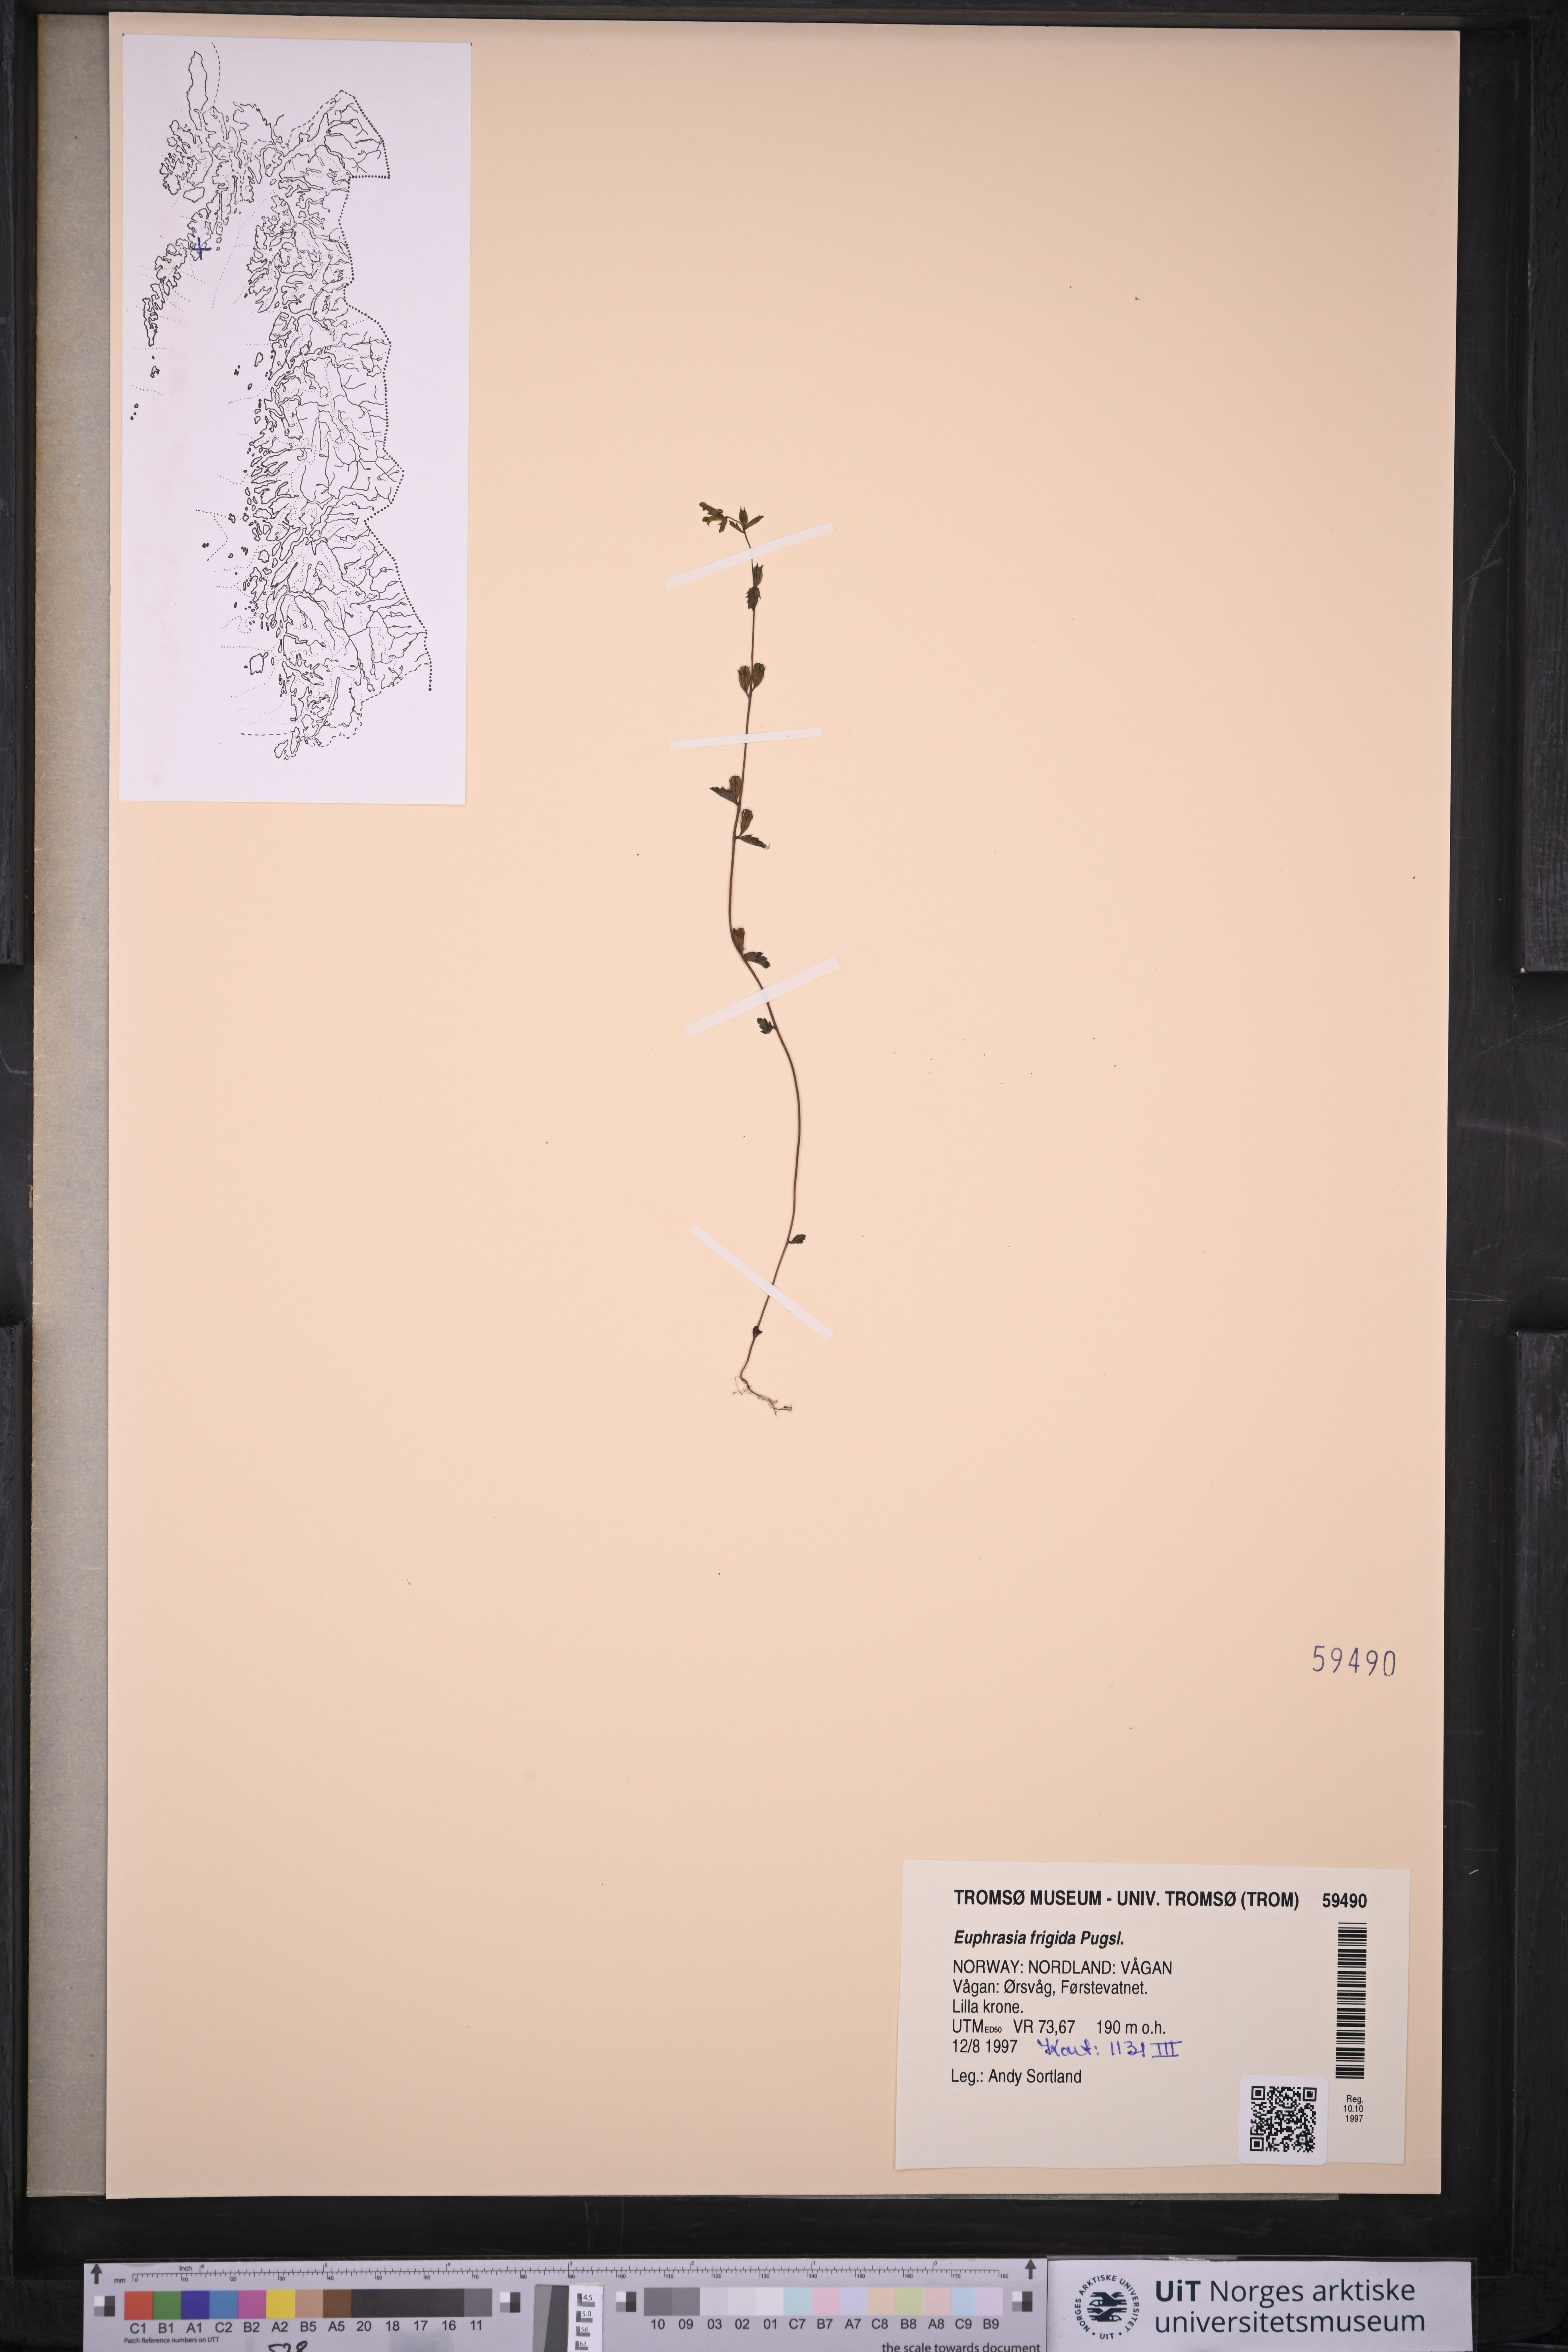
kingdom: Plantae
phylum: Tracheophyta
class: Magnoliopsida
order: Lamiales
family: Orobanchaceae
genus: Euphrasia
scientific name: Euphrasia frigida
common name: An eyebright
